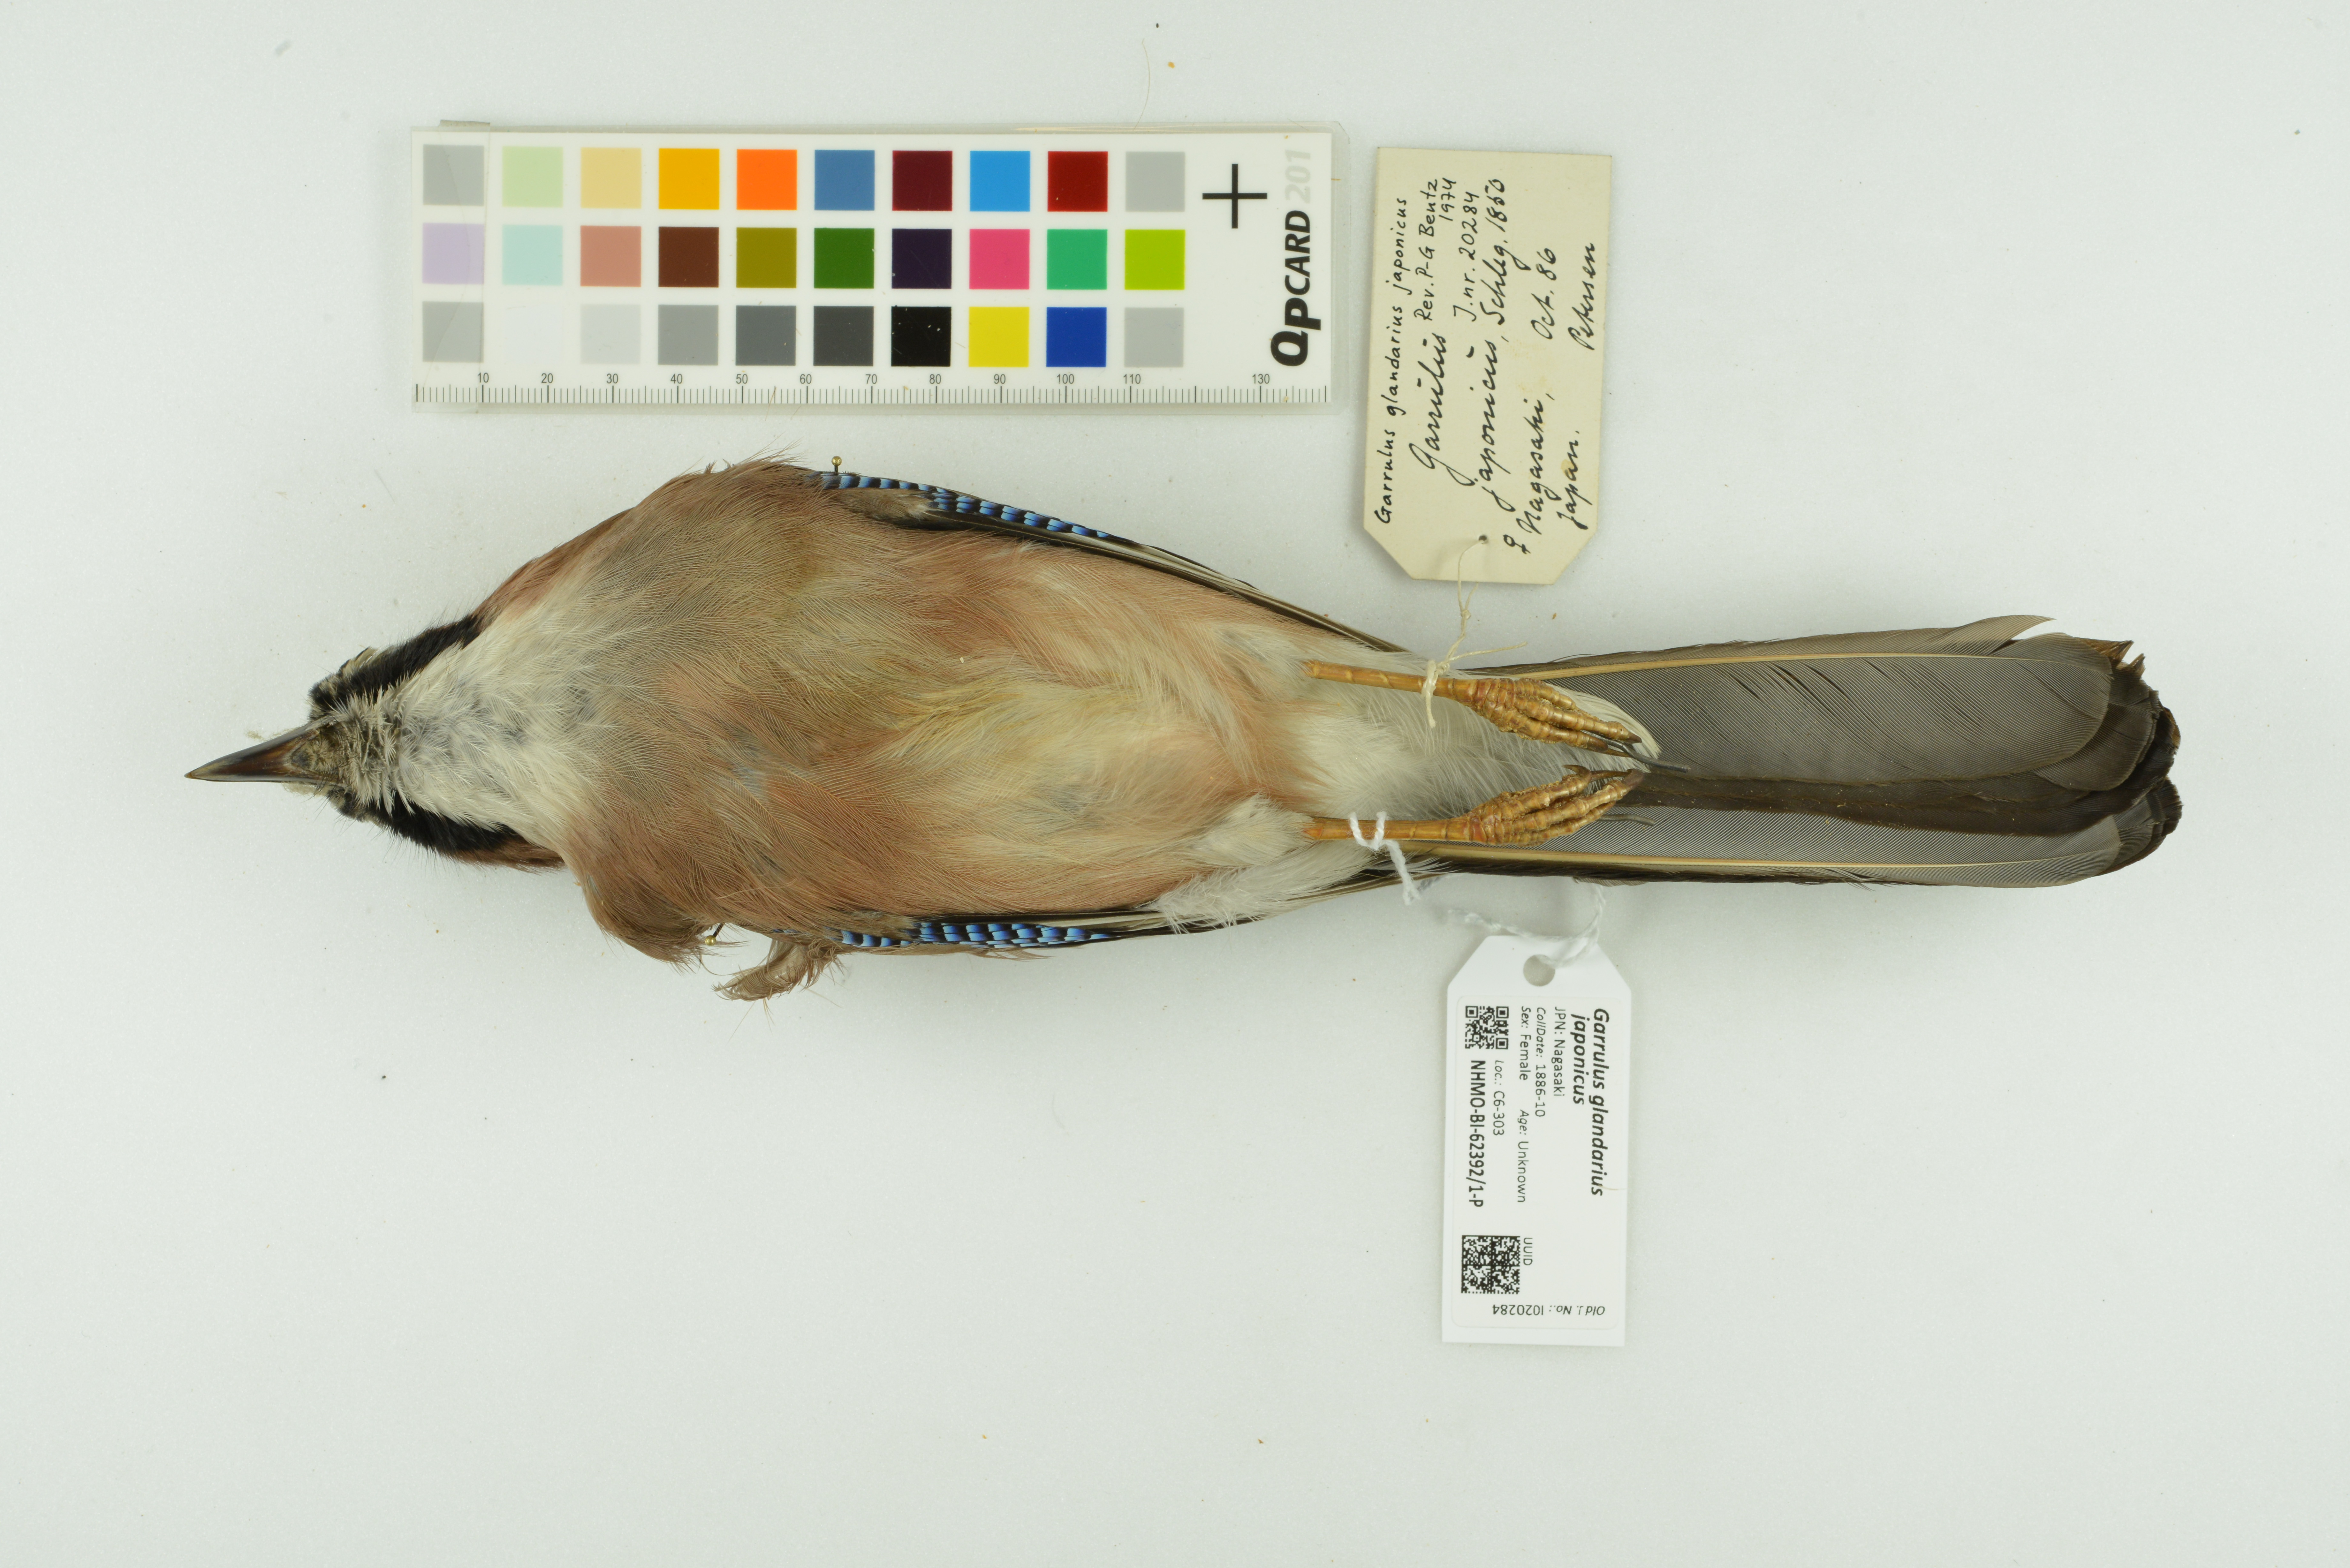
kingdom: Animalia
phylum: Chordata
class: Aves
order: Passeriformes
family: Corvidae
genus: Garrulus
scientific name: Garrulus glandarius
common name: Eurasian jay
